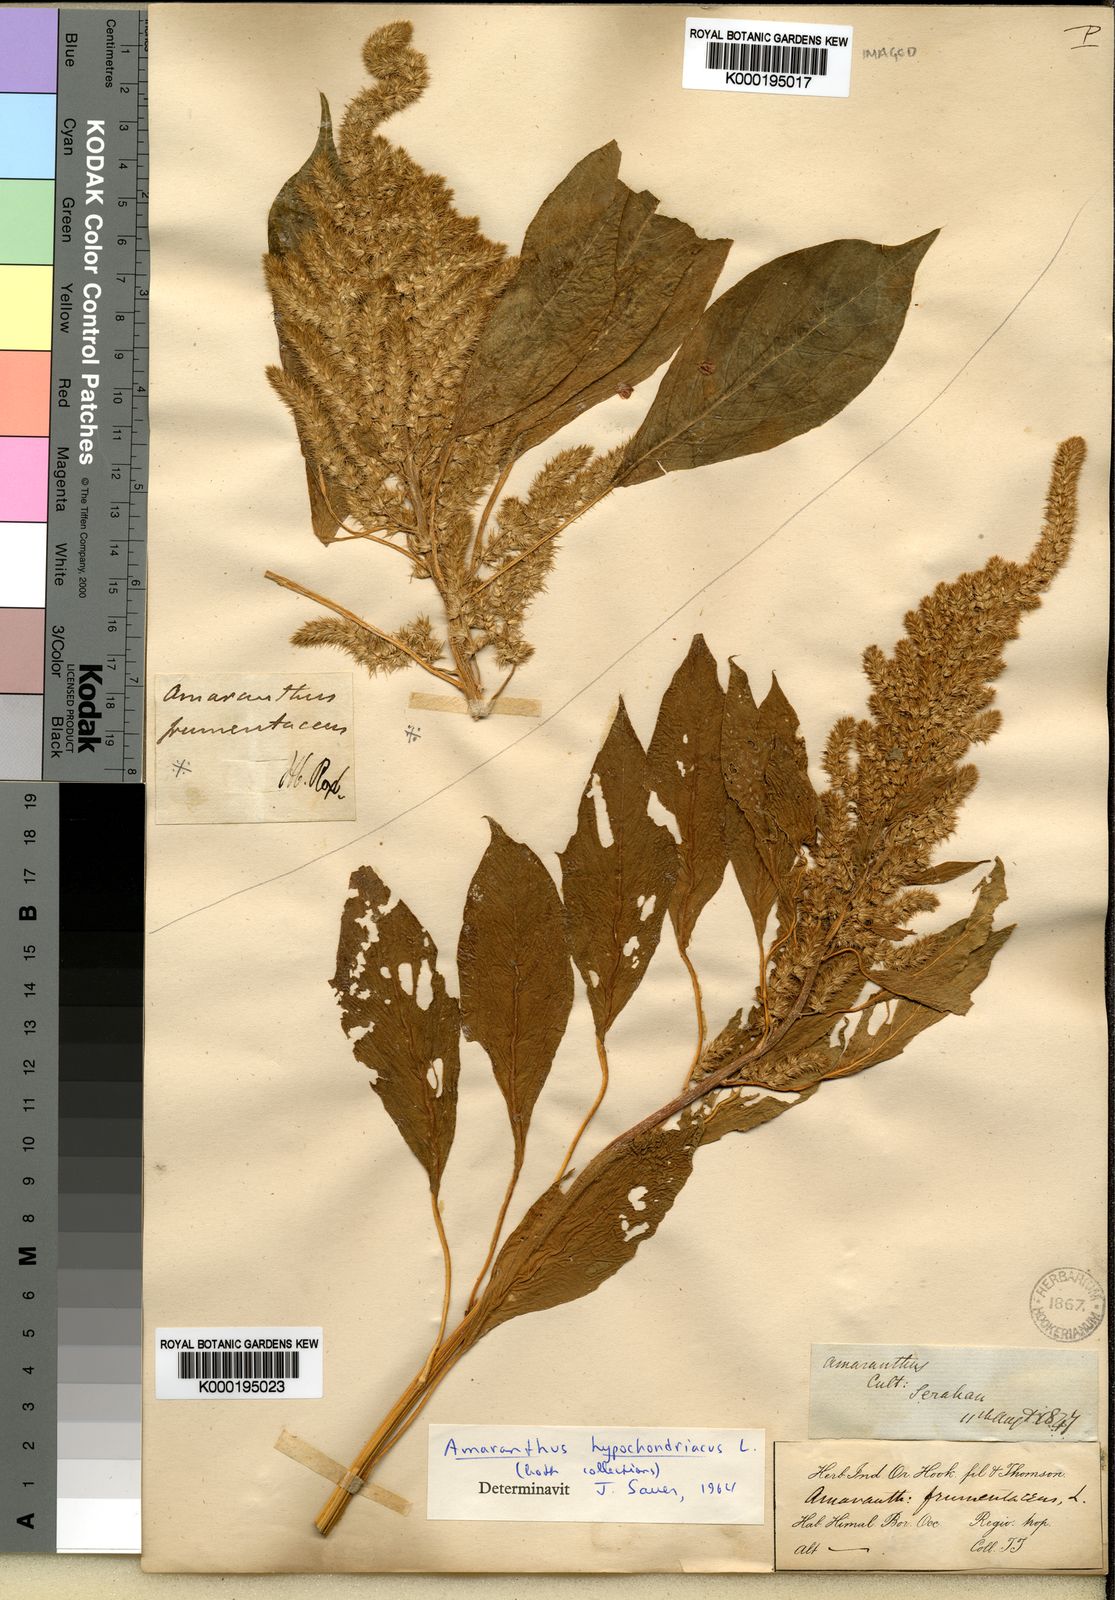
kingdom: Plantae
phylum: Tracheophyta
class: Magnoliopsida
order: Caryophyllales
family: Amaranthaceae
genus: Amaranthus
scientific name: Amaranthus hybridus
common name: Green amaranth
